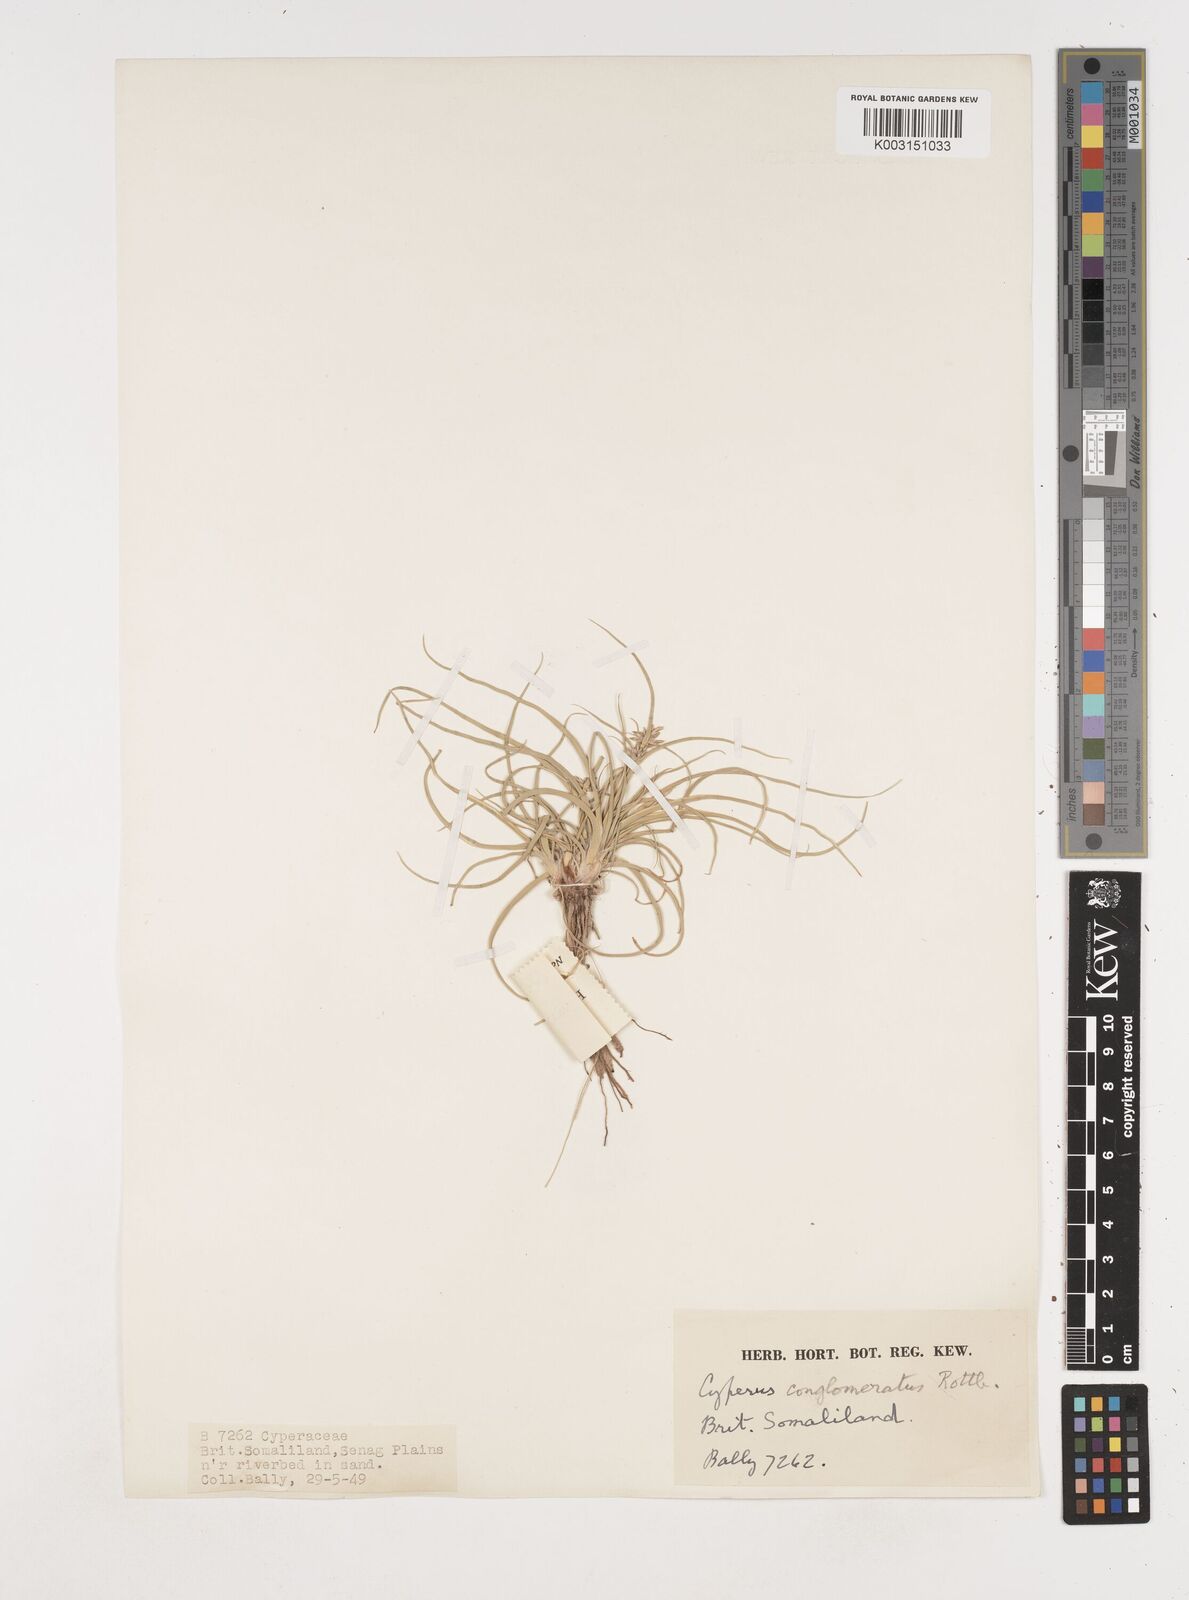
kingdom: Plantae
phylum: Tracheophyta
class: Liliopsida
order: Poales
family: Cyperaceae
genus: Cyperus
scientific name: Cyperus conglomeratus
